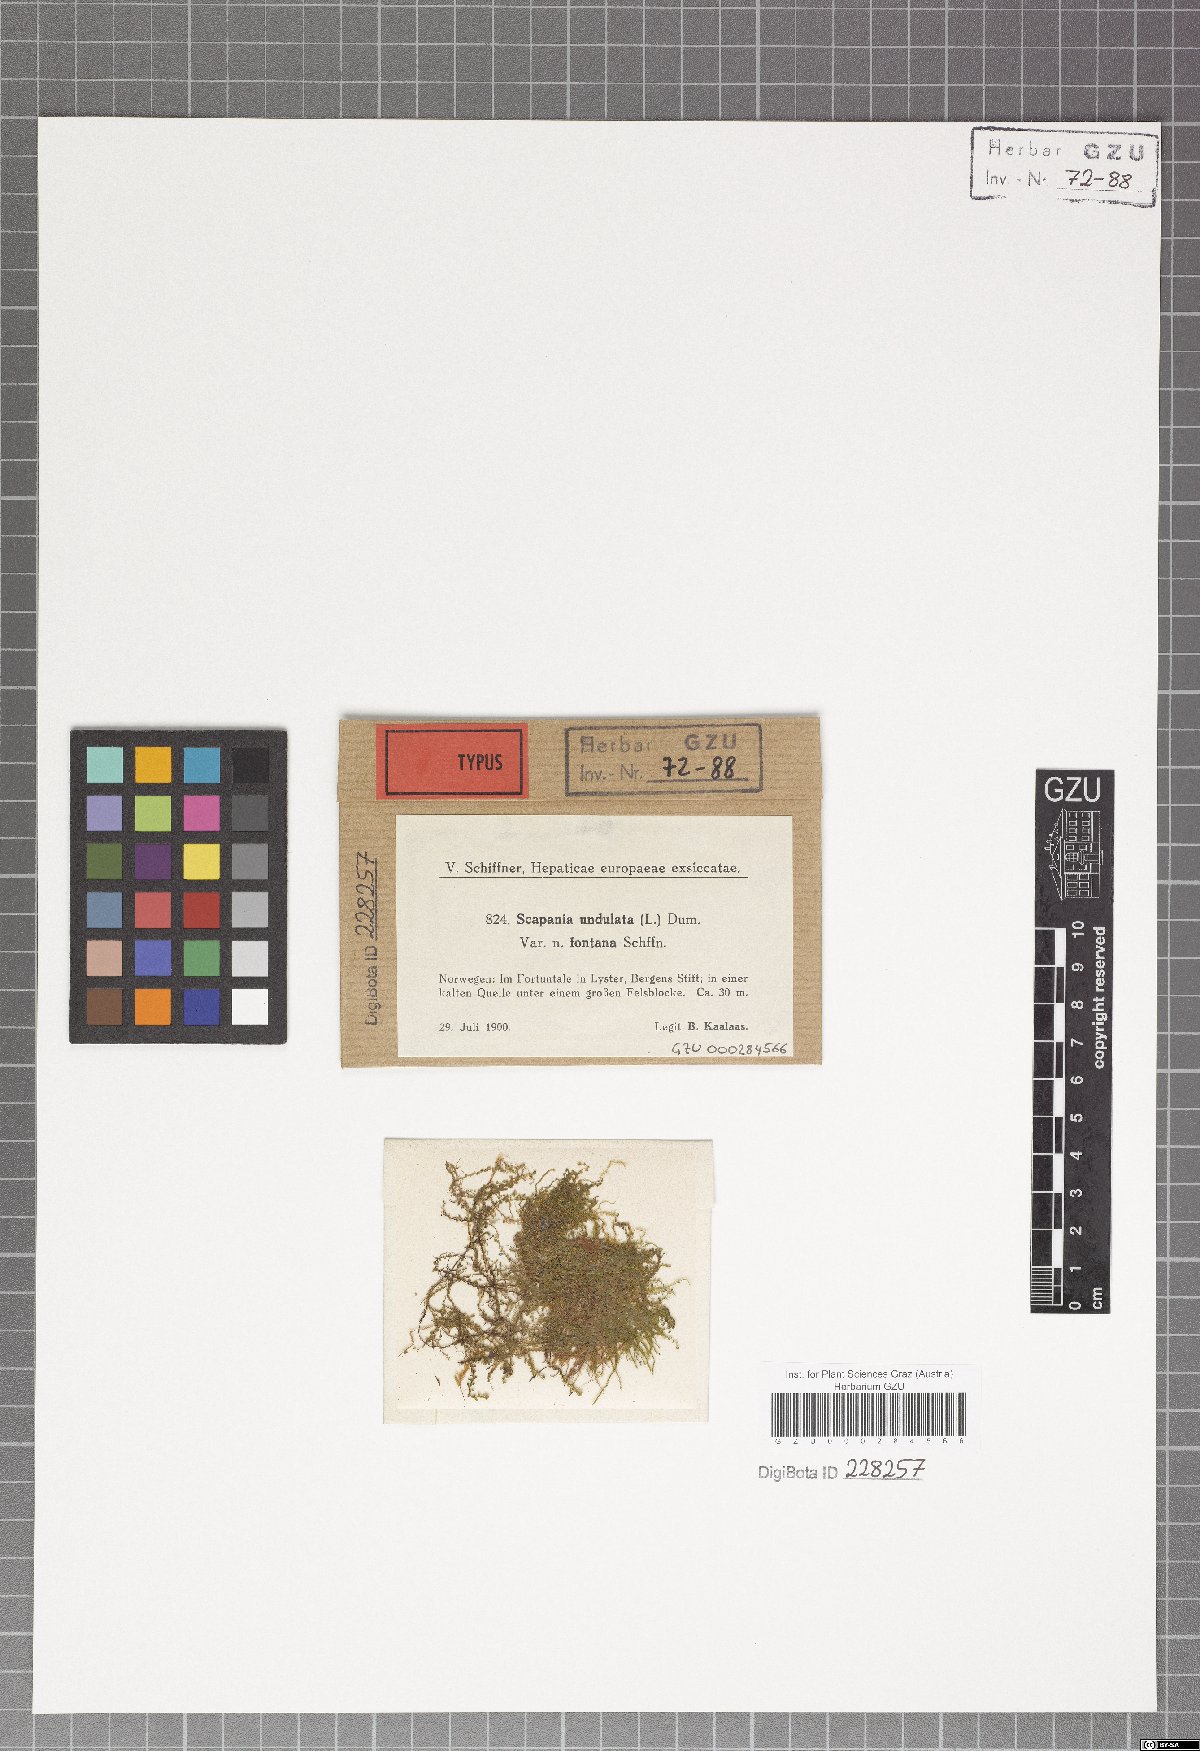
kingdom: Plantae
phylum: Marchantiophyta
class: Jungermanniopsida
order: Jungermanniales
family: Scapaniaceae
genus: Scapania
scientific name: Scapania undulata
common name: Water earwort
